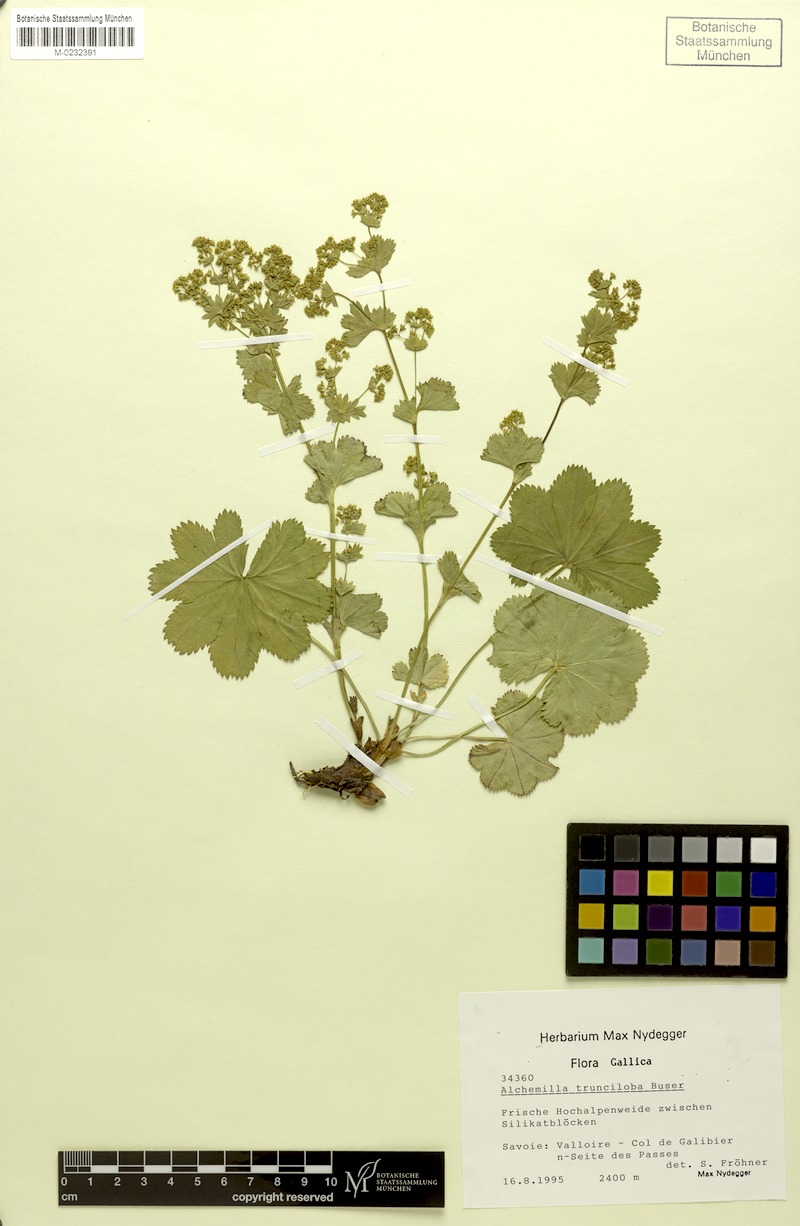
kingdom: Plantae
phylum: Tracheophyta
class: Magnoliopsida
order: Rosales
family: Rosaceae
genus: Alchemilla
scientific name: Alchemilla trunciloba
